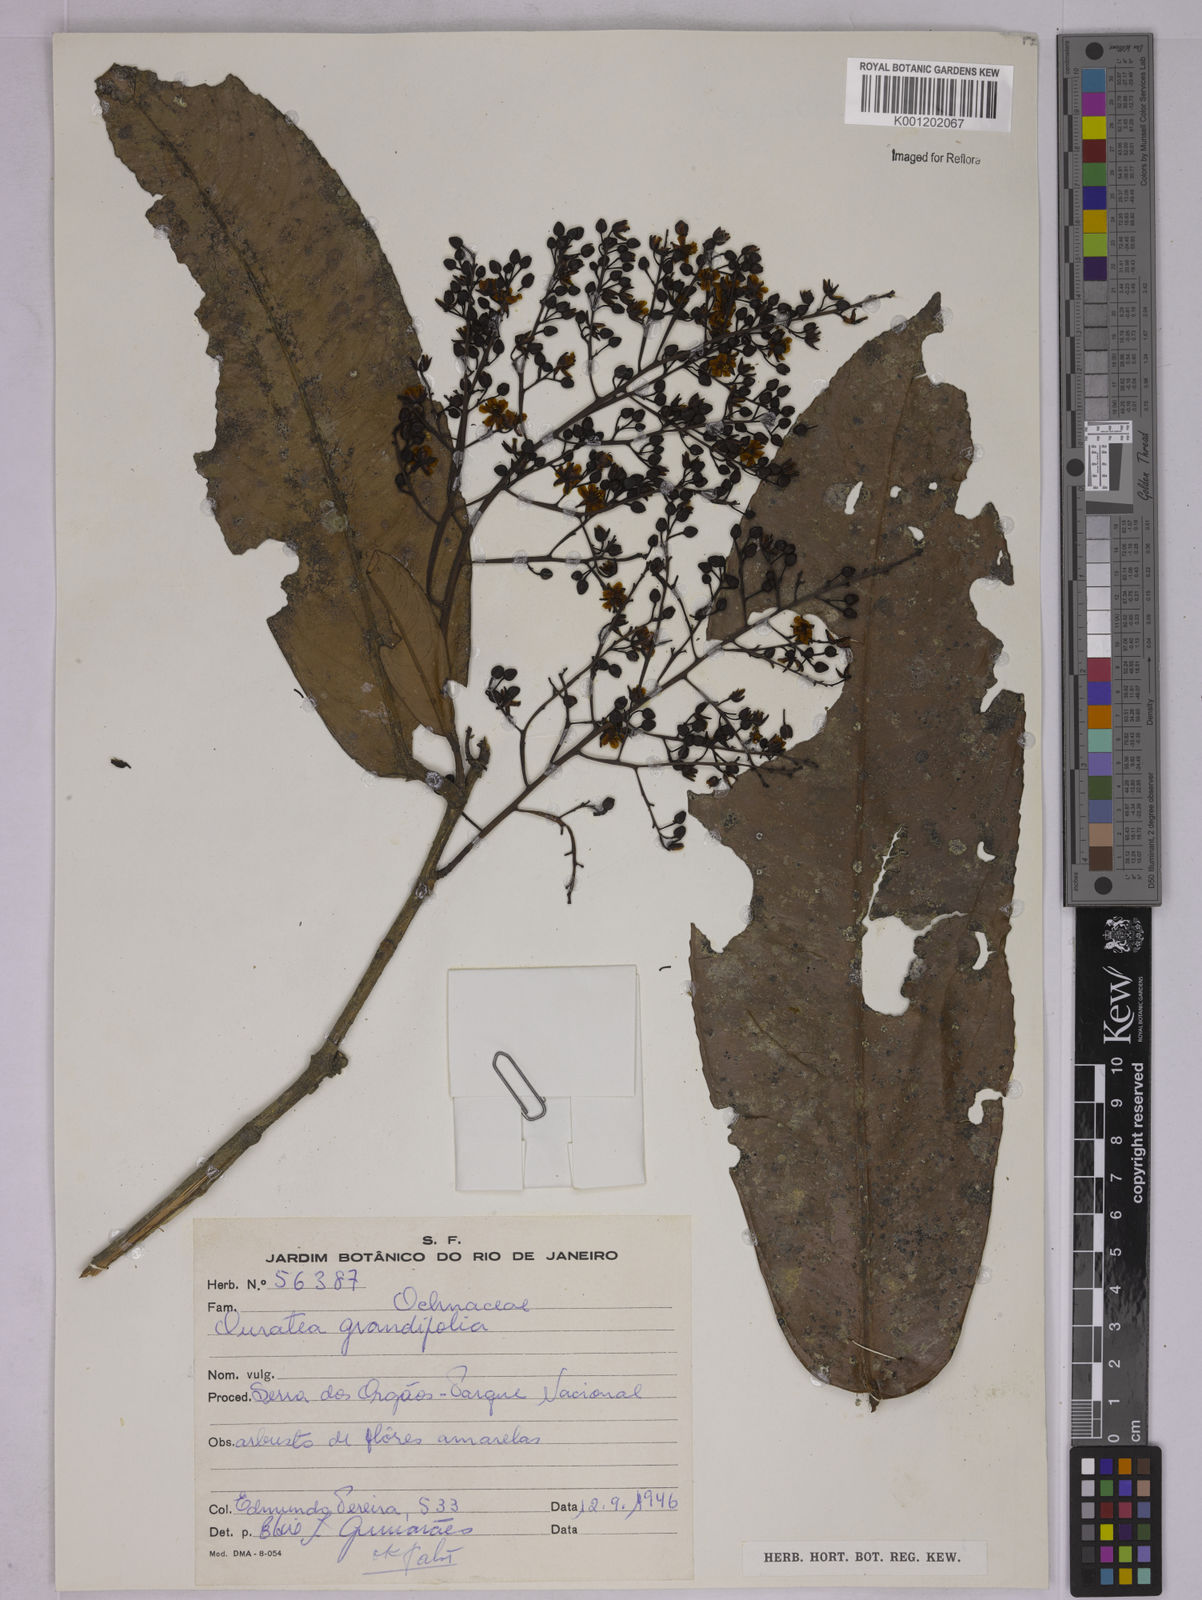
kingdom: Plantae
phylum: Tracheophyta
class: Magnoliopsida
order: Malpighiales
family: Ochnaceae
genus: Ouratea
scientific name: Ouratea grandifolia
